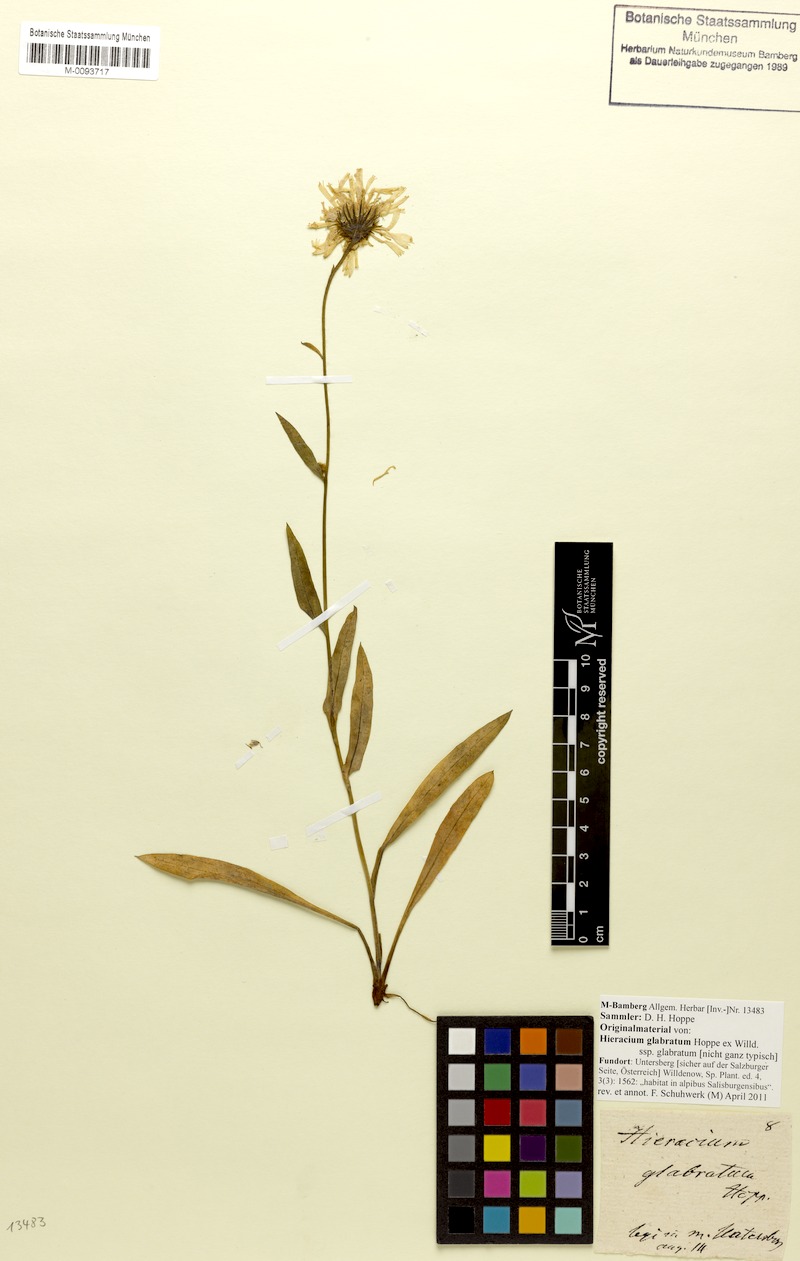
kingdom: Plantae
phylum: Tracheophyta
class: Magnoliopsida
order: Asterales
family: Asteraceae
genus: Hieracium
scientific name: Hieracium glabratum
